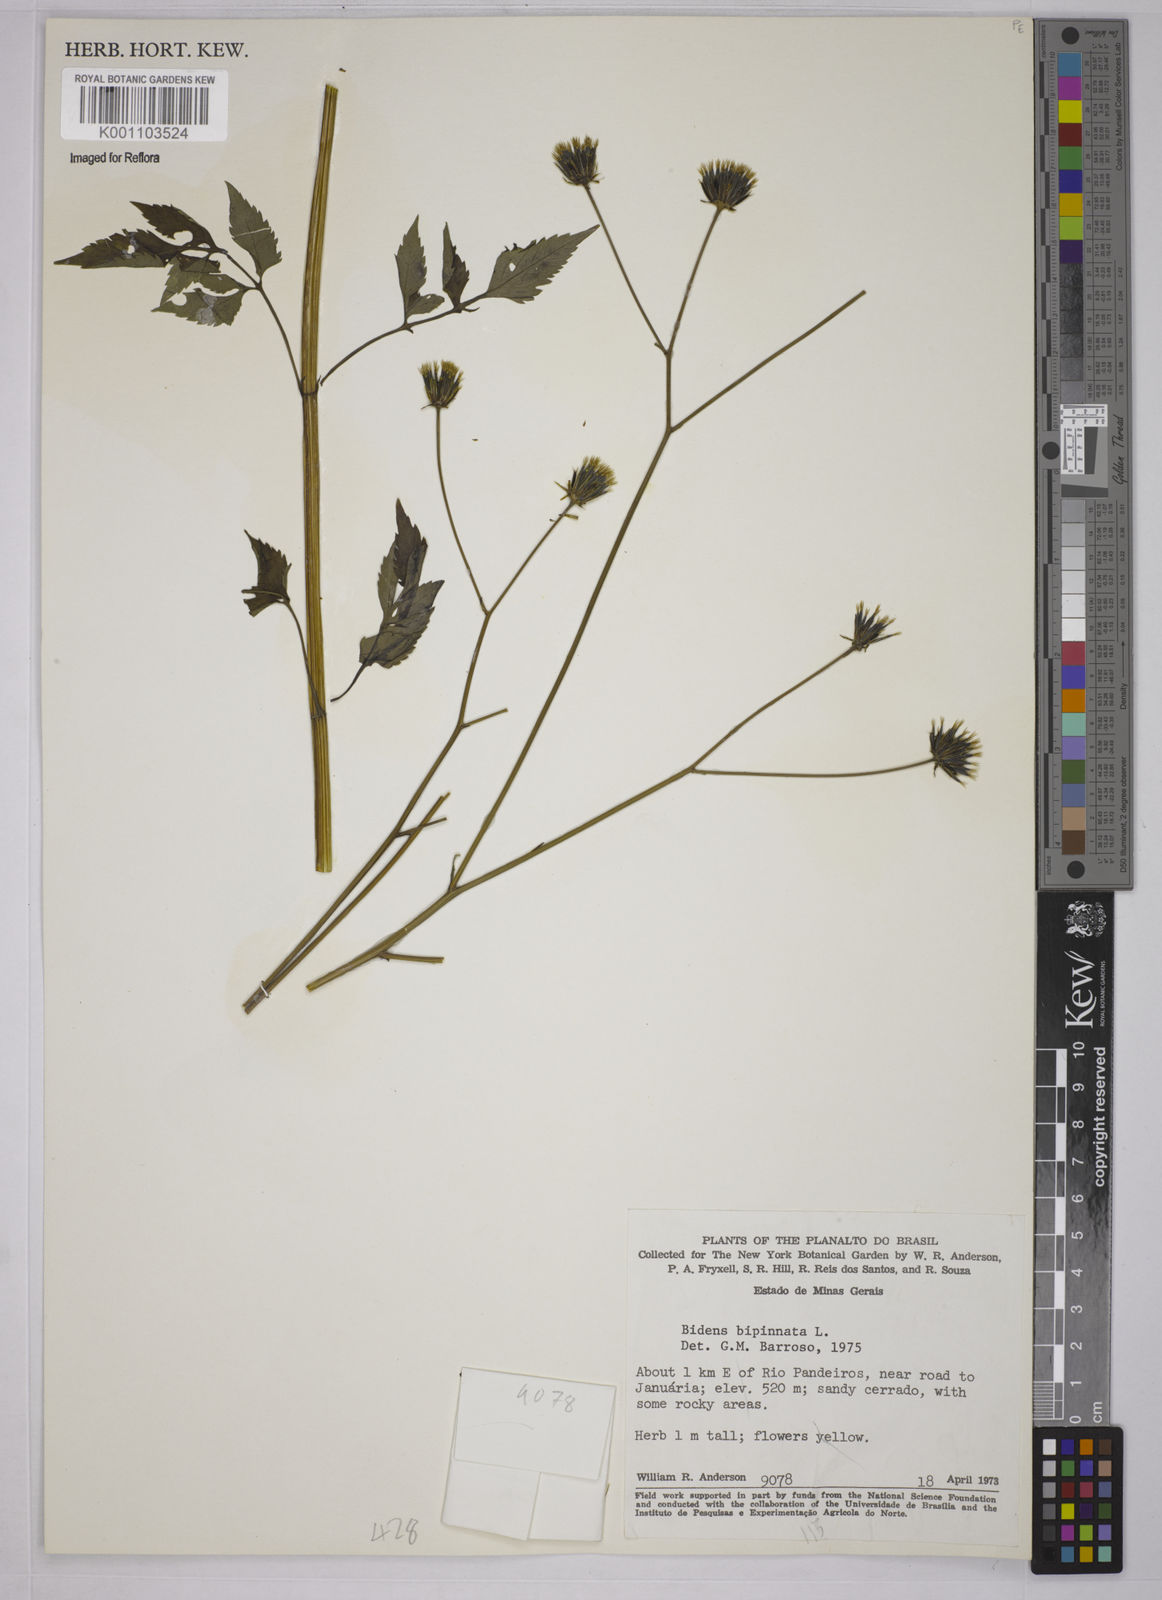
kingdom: Plantae
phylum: Tracheophyta
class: Magnoliopsida
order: Asterales
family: Asteraceae
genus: Bidens
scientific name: Bidens bipinnata
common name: Spanish-needles
